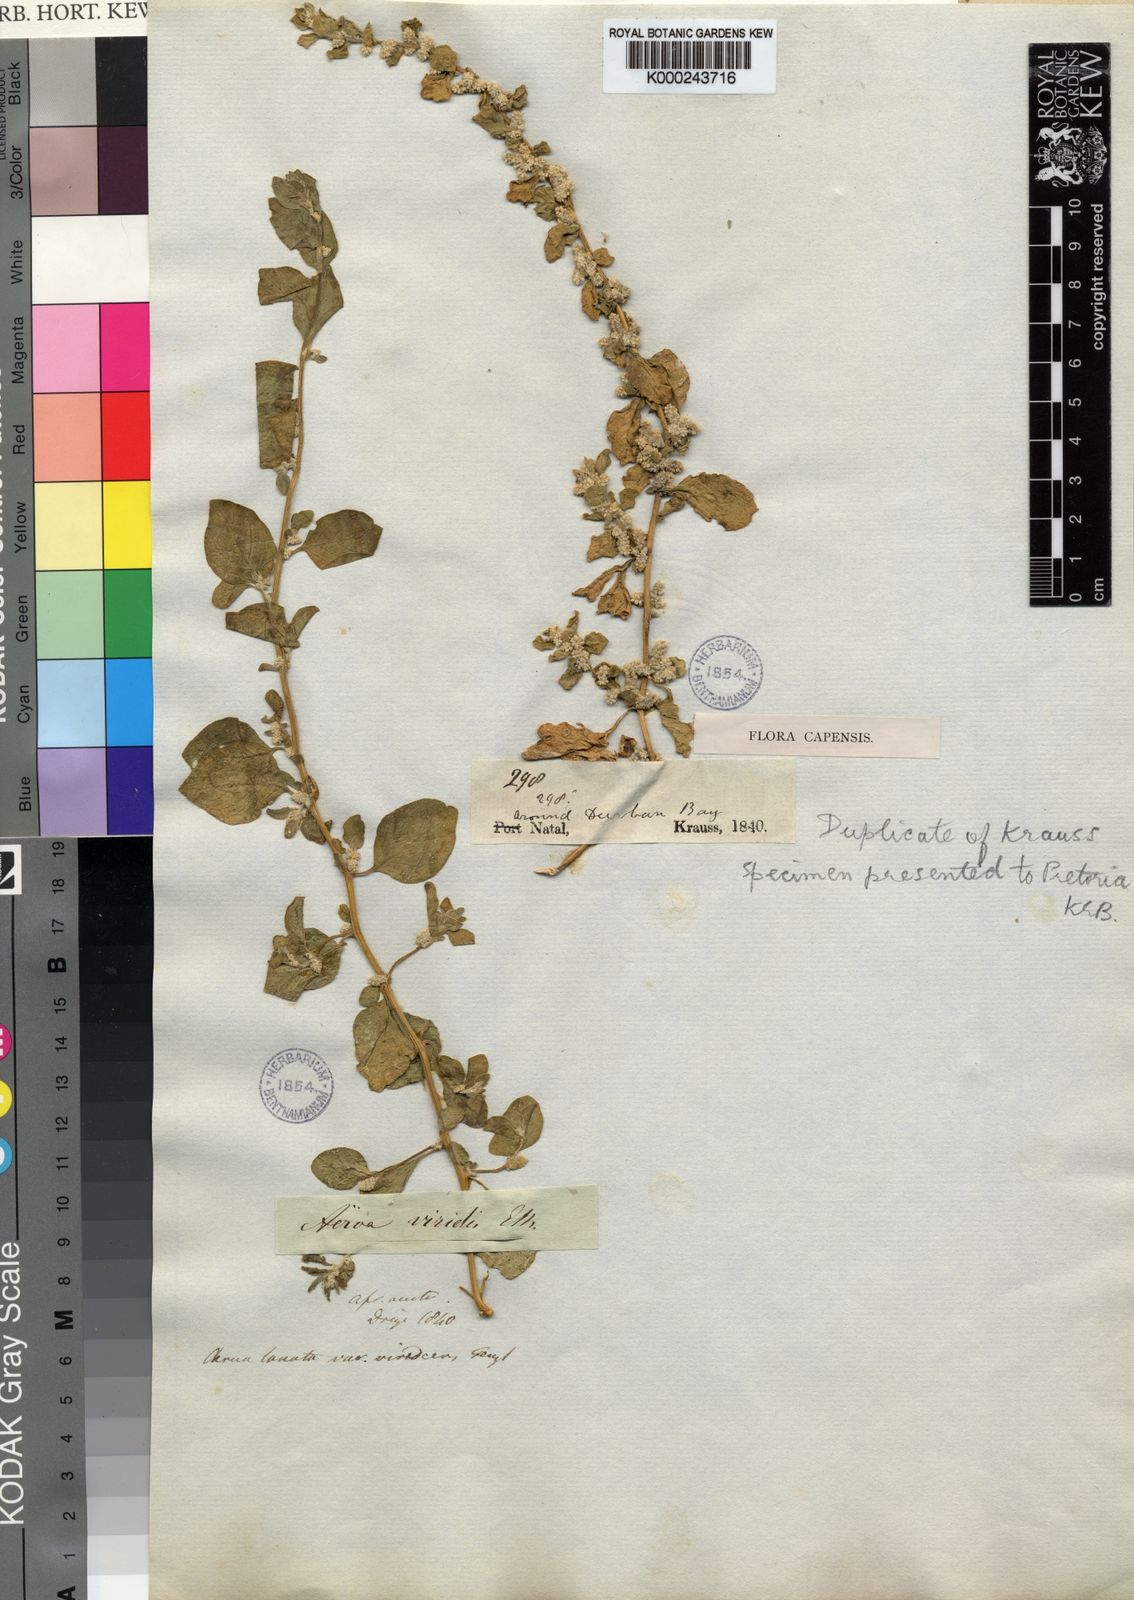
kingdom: Plantae
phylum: Tracheophyta
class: Magnoliopsida
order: Caryophyllales
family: Amaranthaceae
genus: Ouret
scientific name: Ouret lanata
